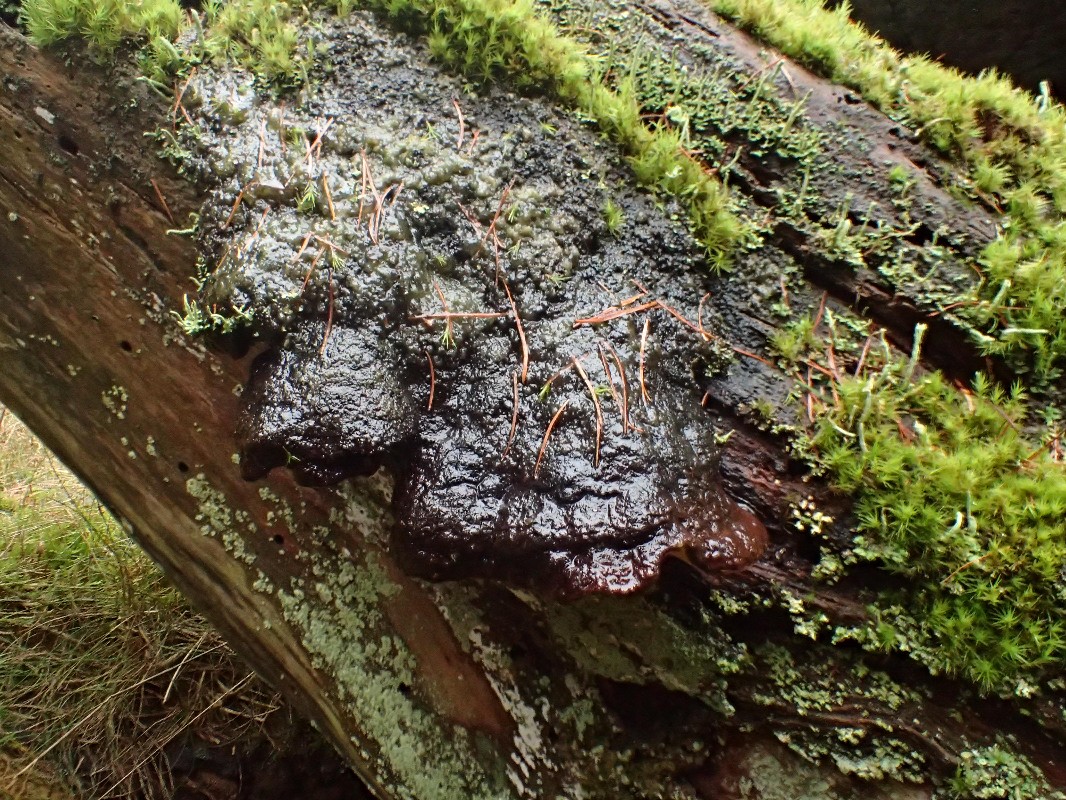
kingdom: Fungi
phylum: Basidiomycota
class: Agaricomycetes
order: Gloeophyllales
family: Gloeophyllaceae
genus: Gloeophyllum
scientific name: Gloeophyllum odoratum
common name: duftende korkhat
